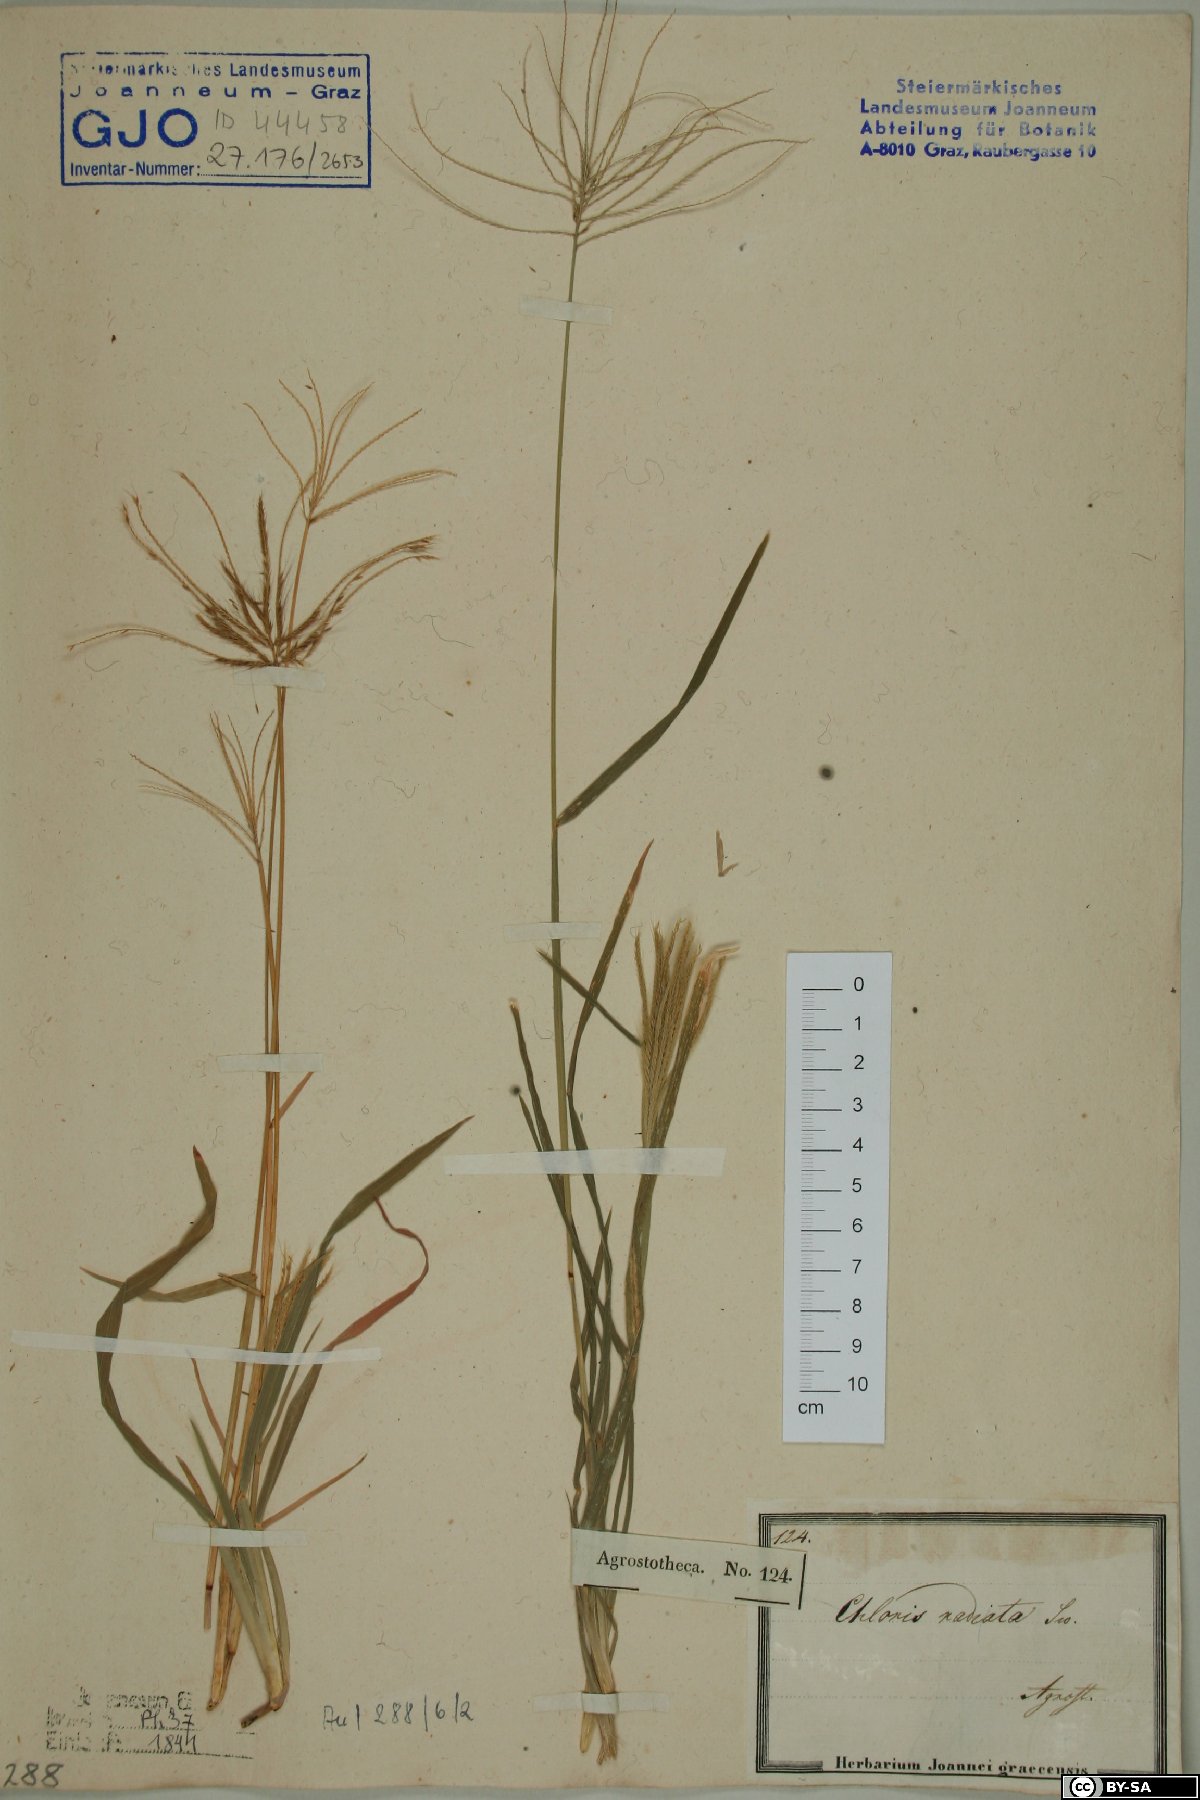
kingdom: Plantae
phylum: Tracheophyta
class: Liliopsida
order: Poales
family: Poaceae
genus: Chloris
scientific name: Chloris radiata
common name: Radiate fingergrass
